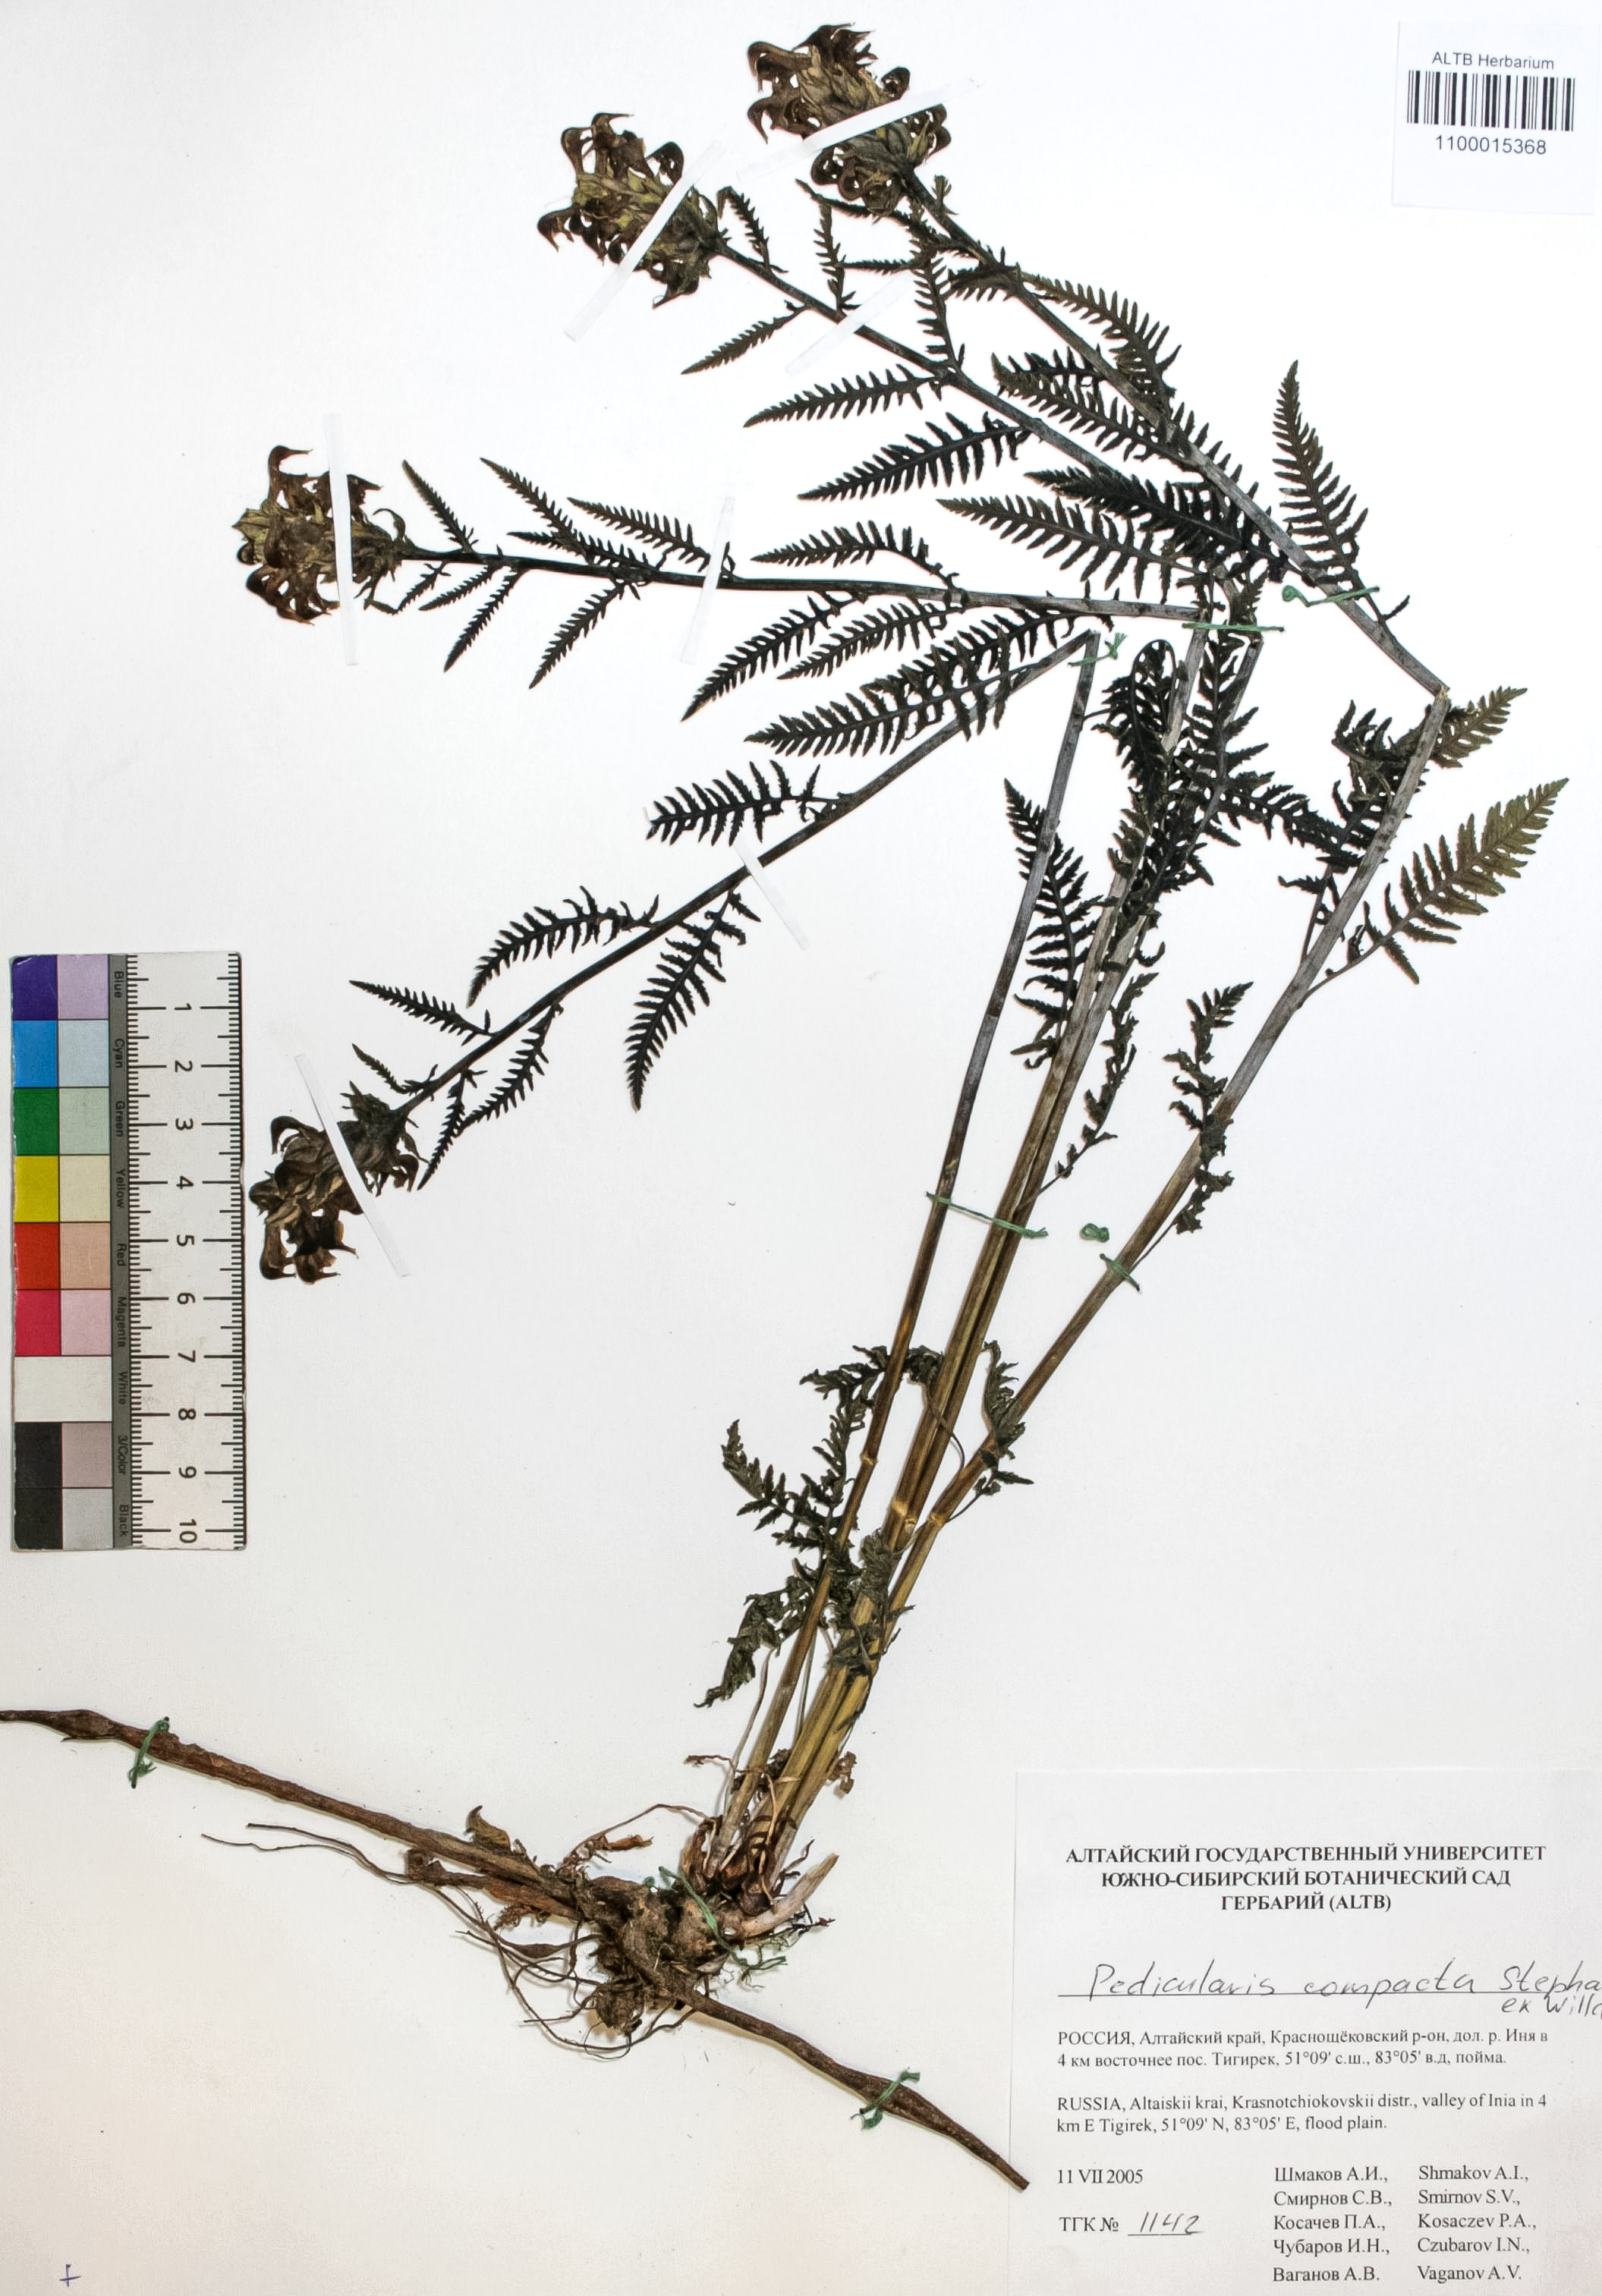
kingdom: Plantae
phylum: Tracheophyta
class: Magnoliopsida
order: Lamiales
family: Orobanchaceae
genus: Pedicularis
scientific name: Pedicularis compacta
